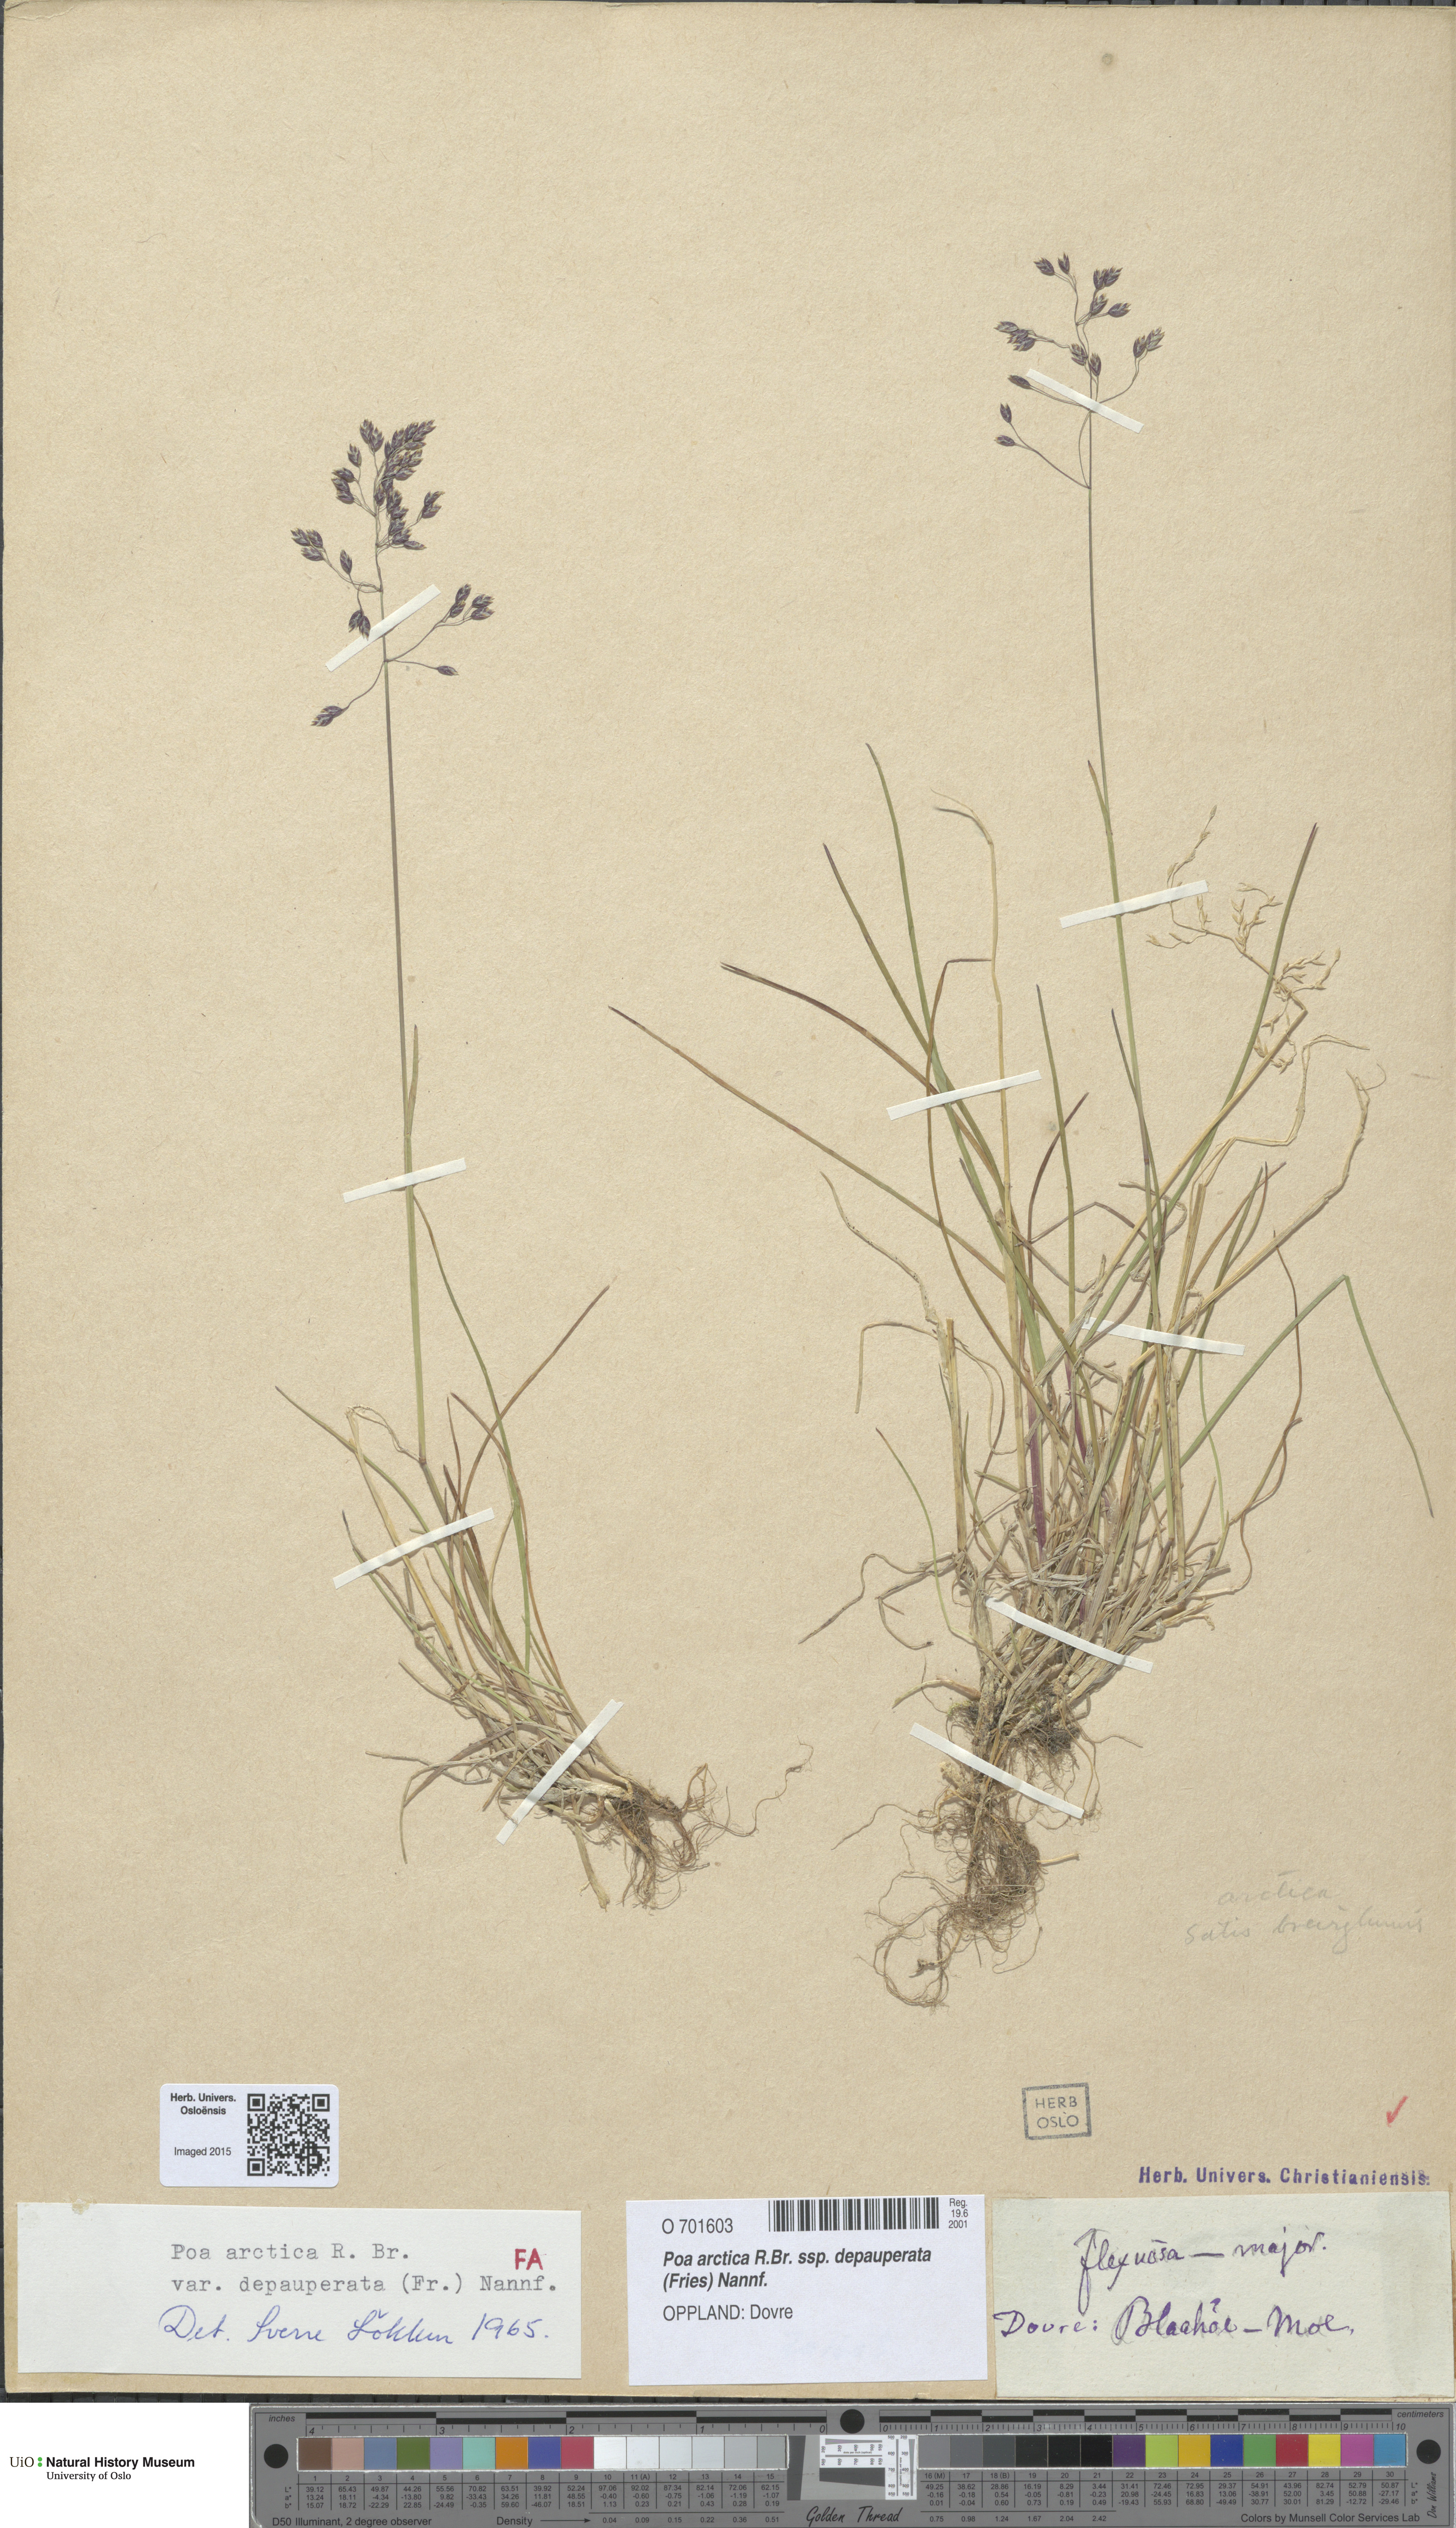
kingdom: Plantae
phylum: Tracheophyta
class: Liliopsida
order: Poales
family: Poaceae
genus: Poa
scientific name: Poa arctica
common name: Arctic bluegrass
